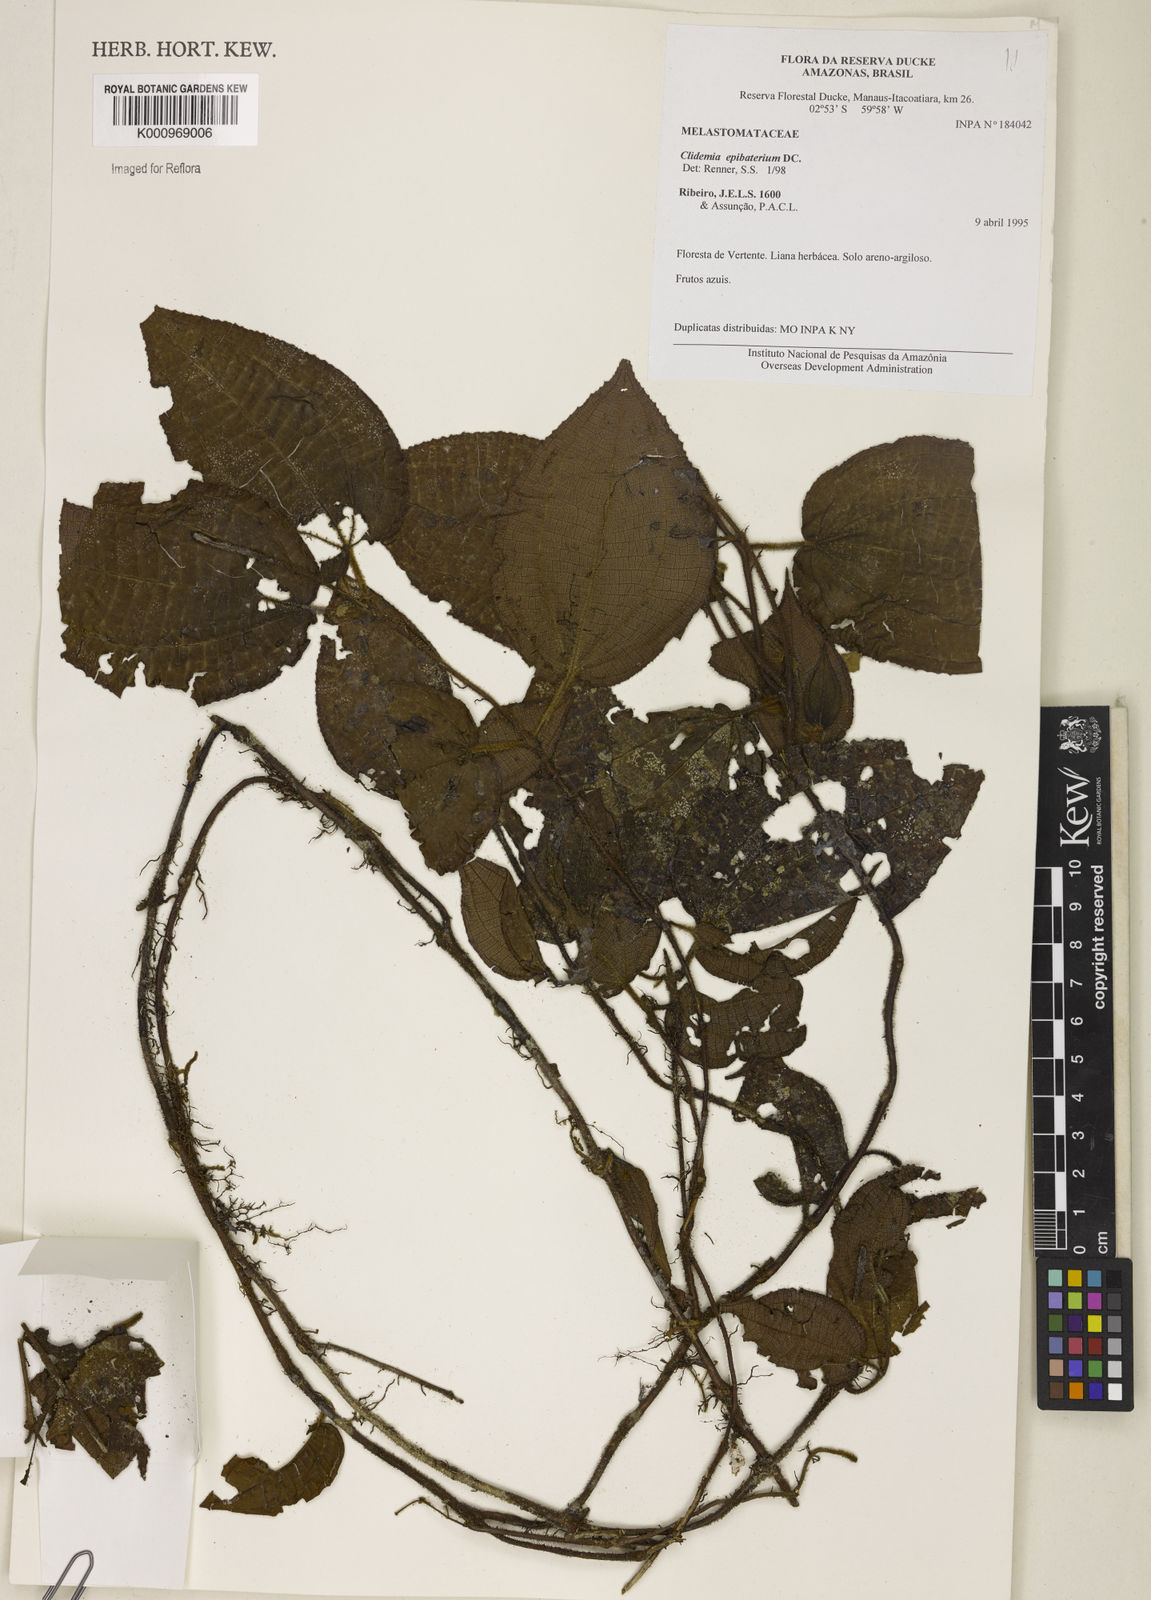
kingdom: Plantae
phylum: Tracheophyta
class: Magnoliopsida
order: Myrtales
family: Melastomataceae
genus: Miconia
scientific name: Miconia epibaterium
